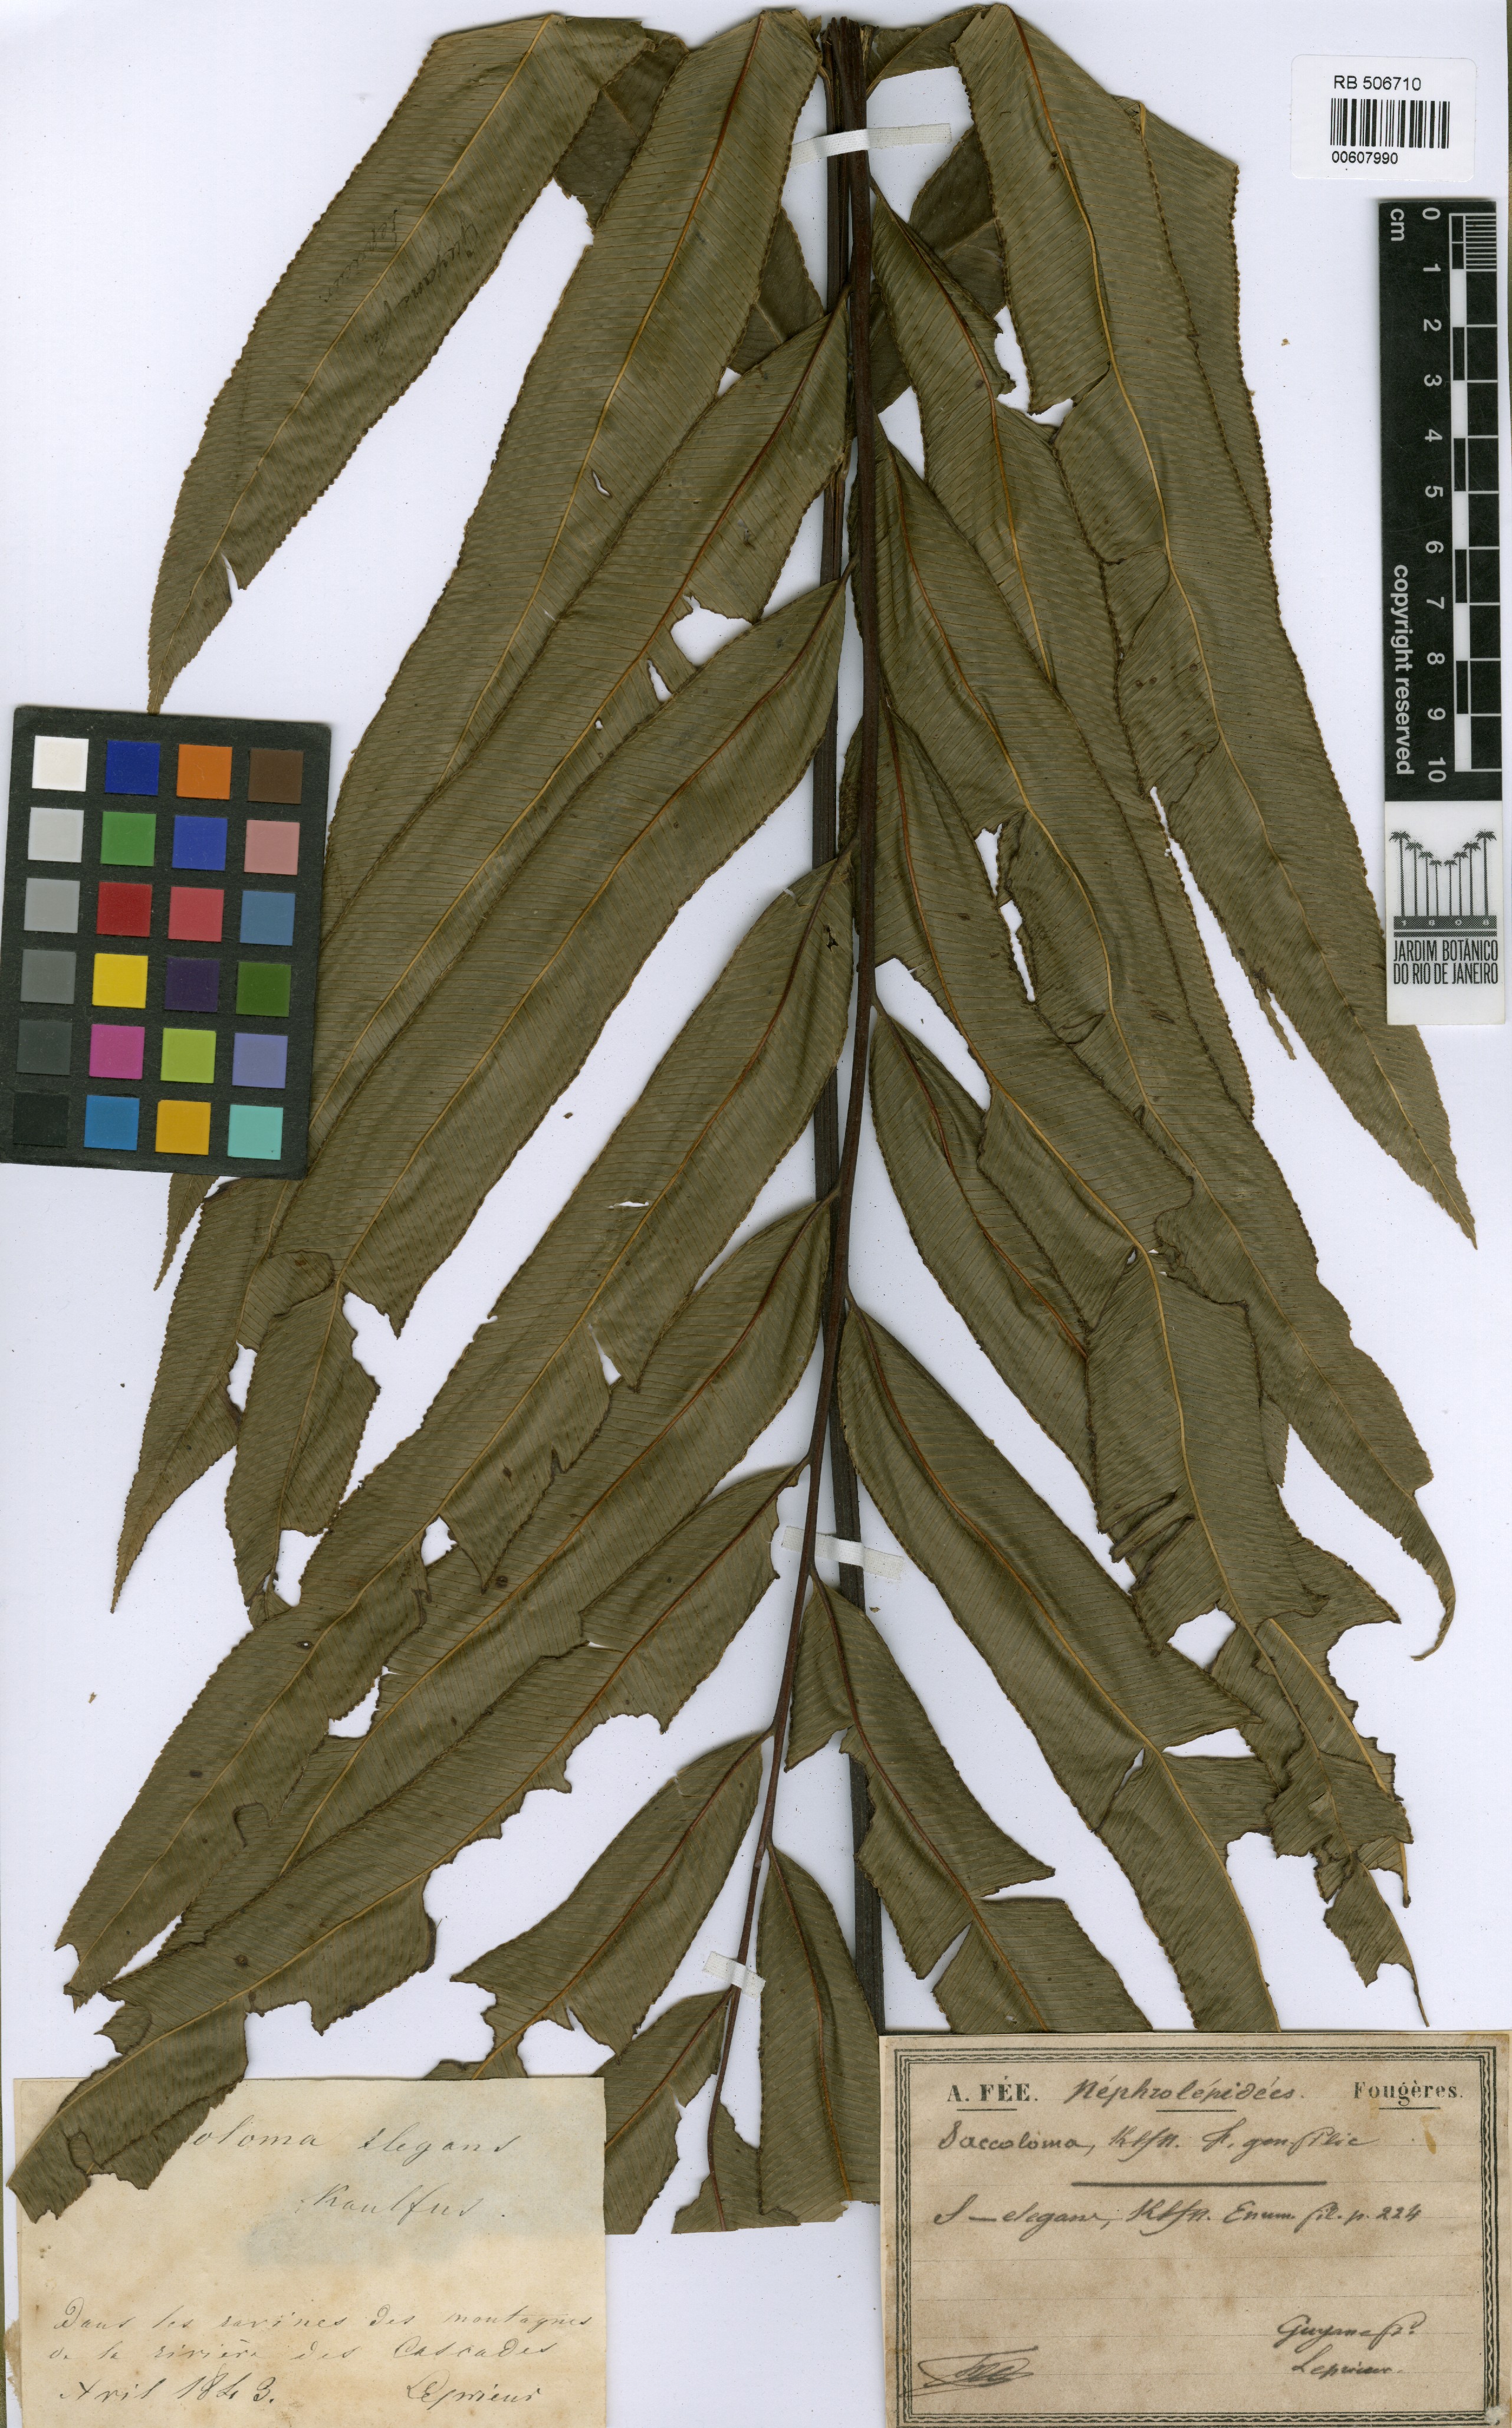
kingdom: Plantae
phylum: Tracheophyta
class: Polypodiopsida
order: Polypodiales
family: Saccolomataceae
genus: Saccoloma
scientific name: Saccoloma elegans
